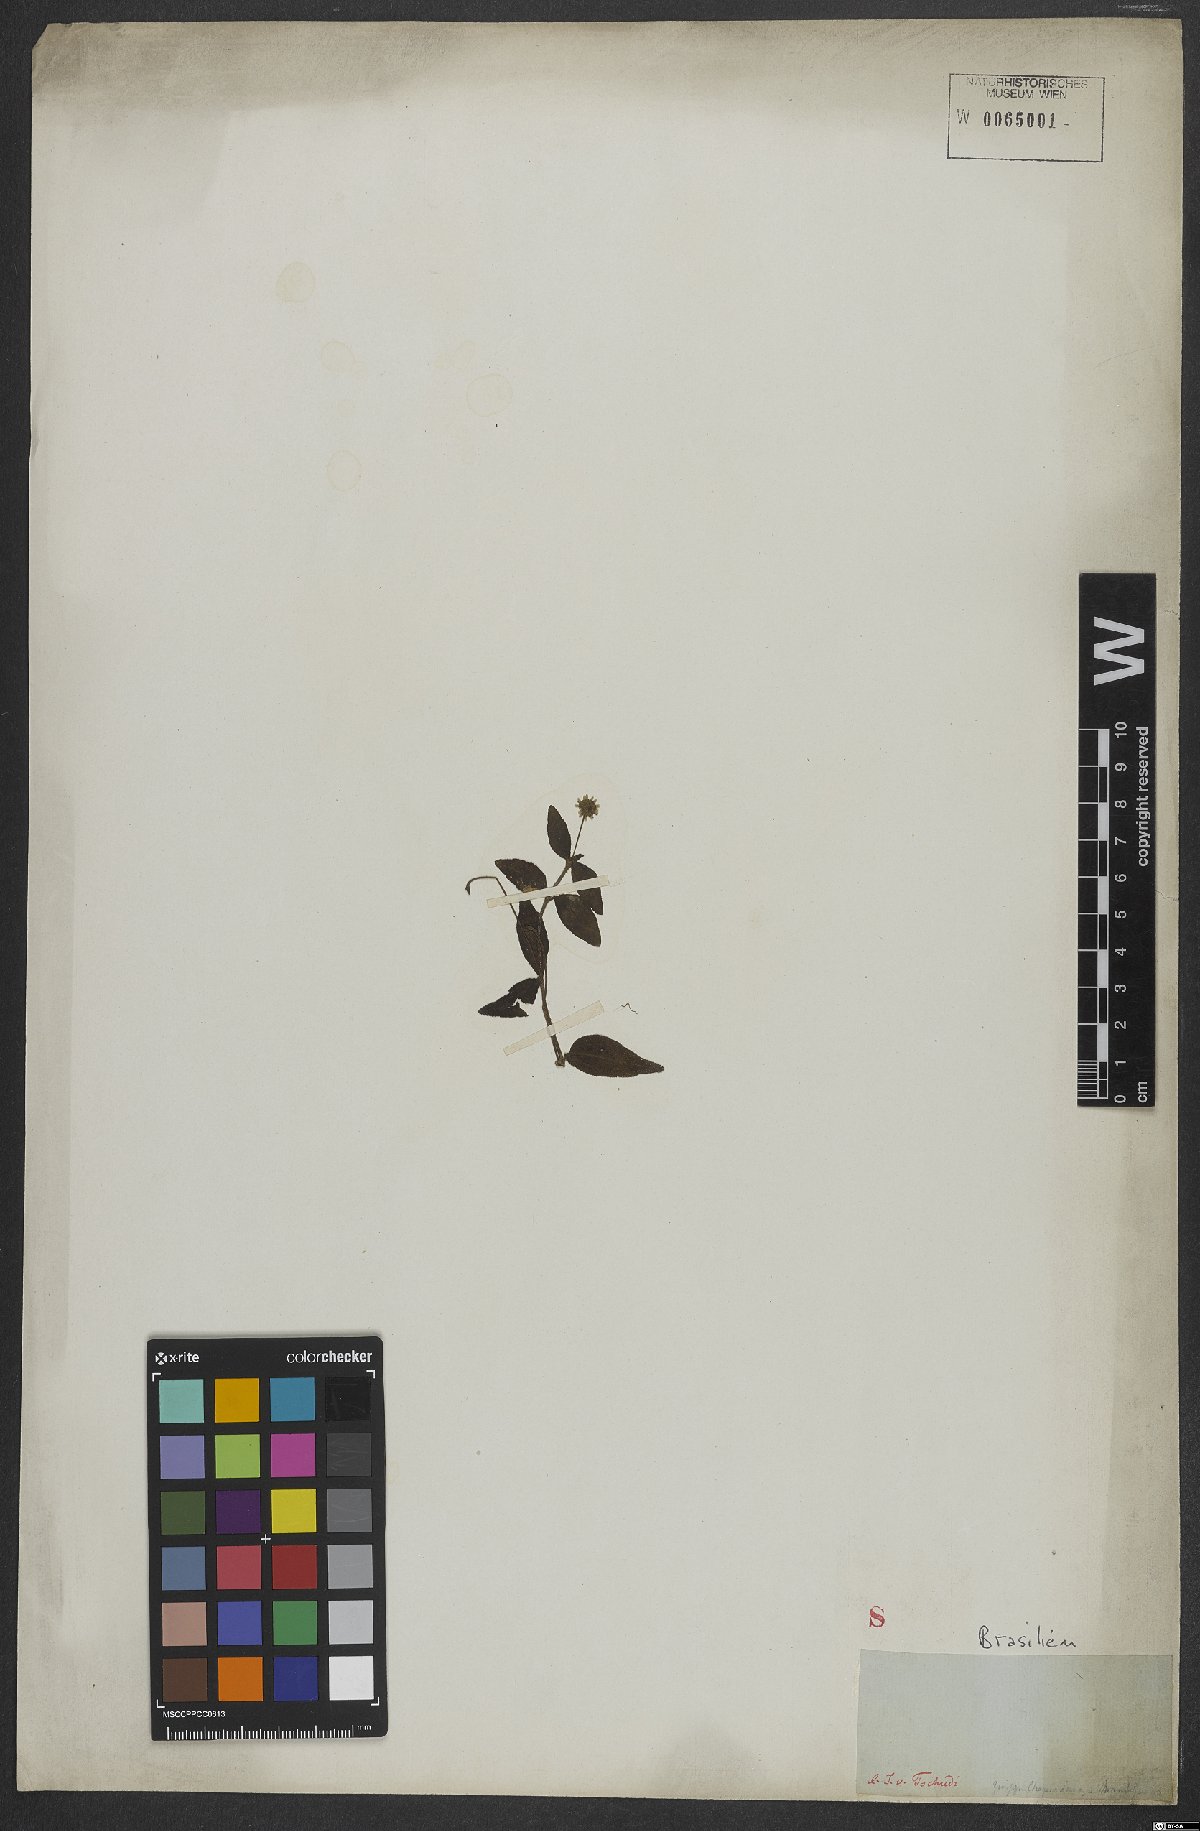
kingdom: Plantae
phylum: Tracheophyta
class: Magnoliopsida
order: Asterales
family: Asteraceae
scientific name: Asteraceae
